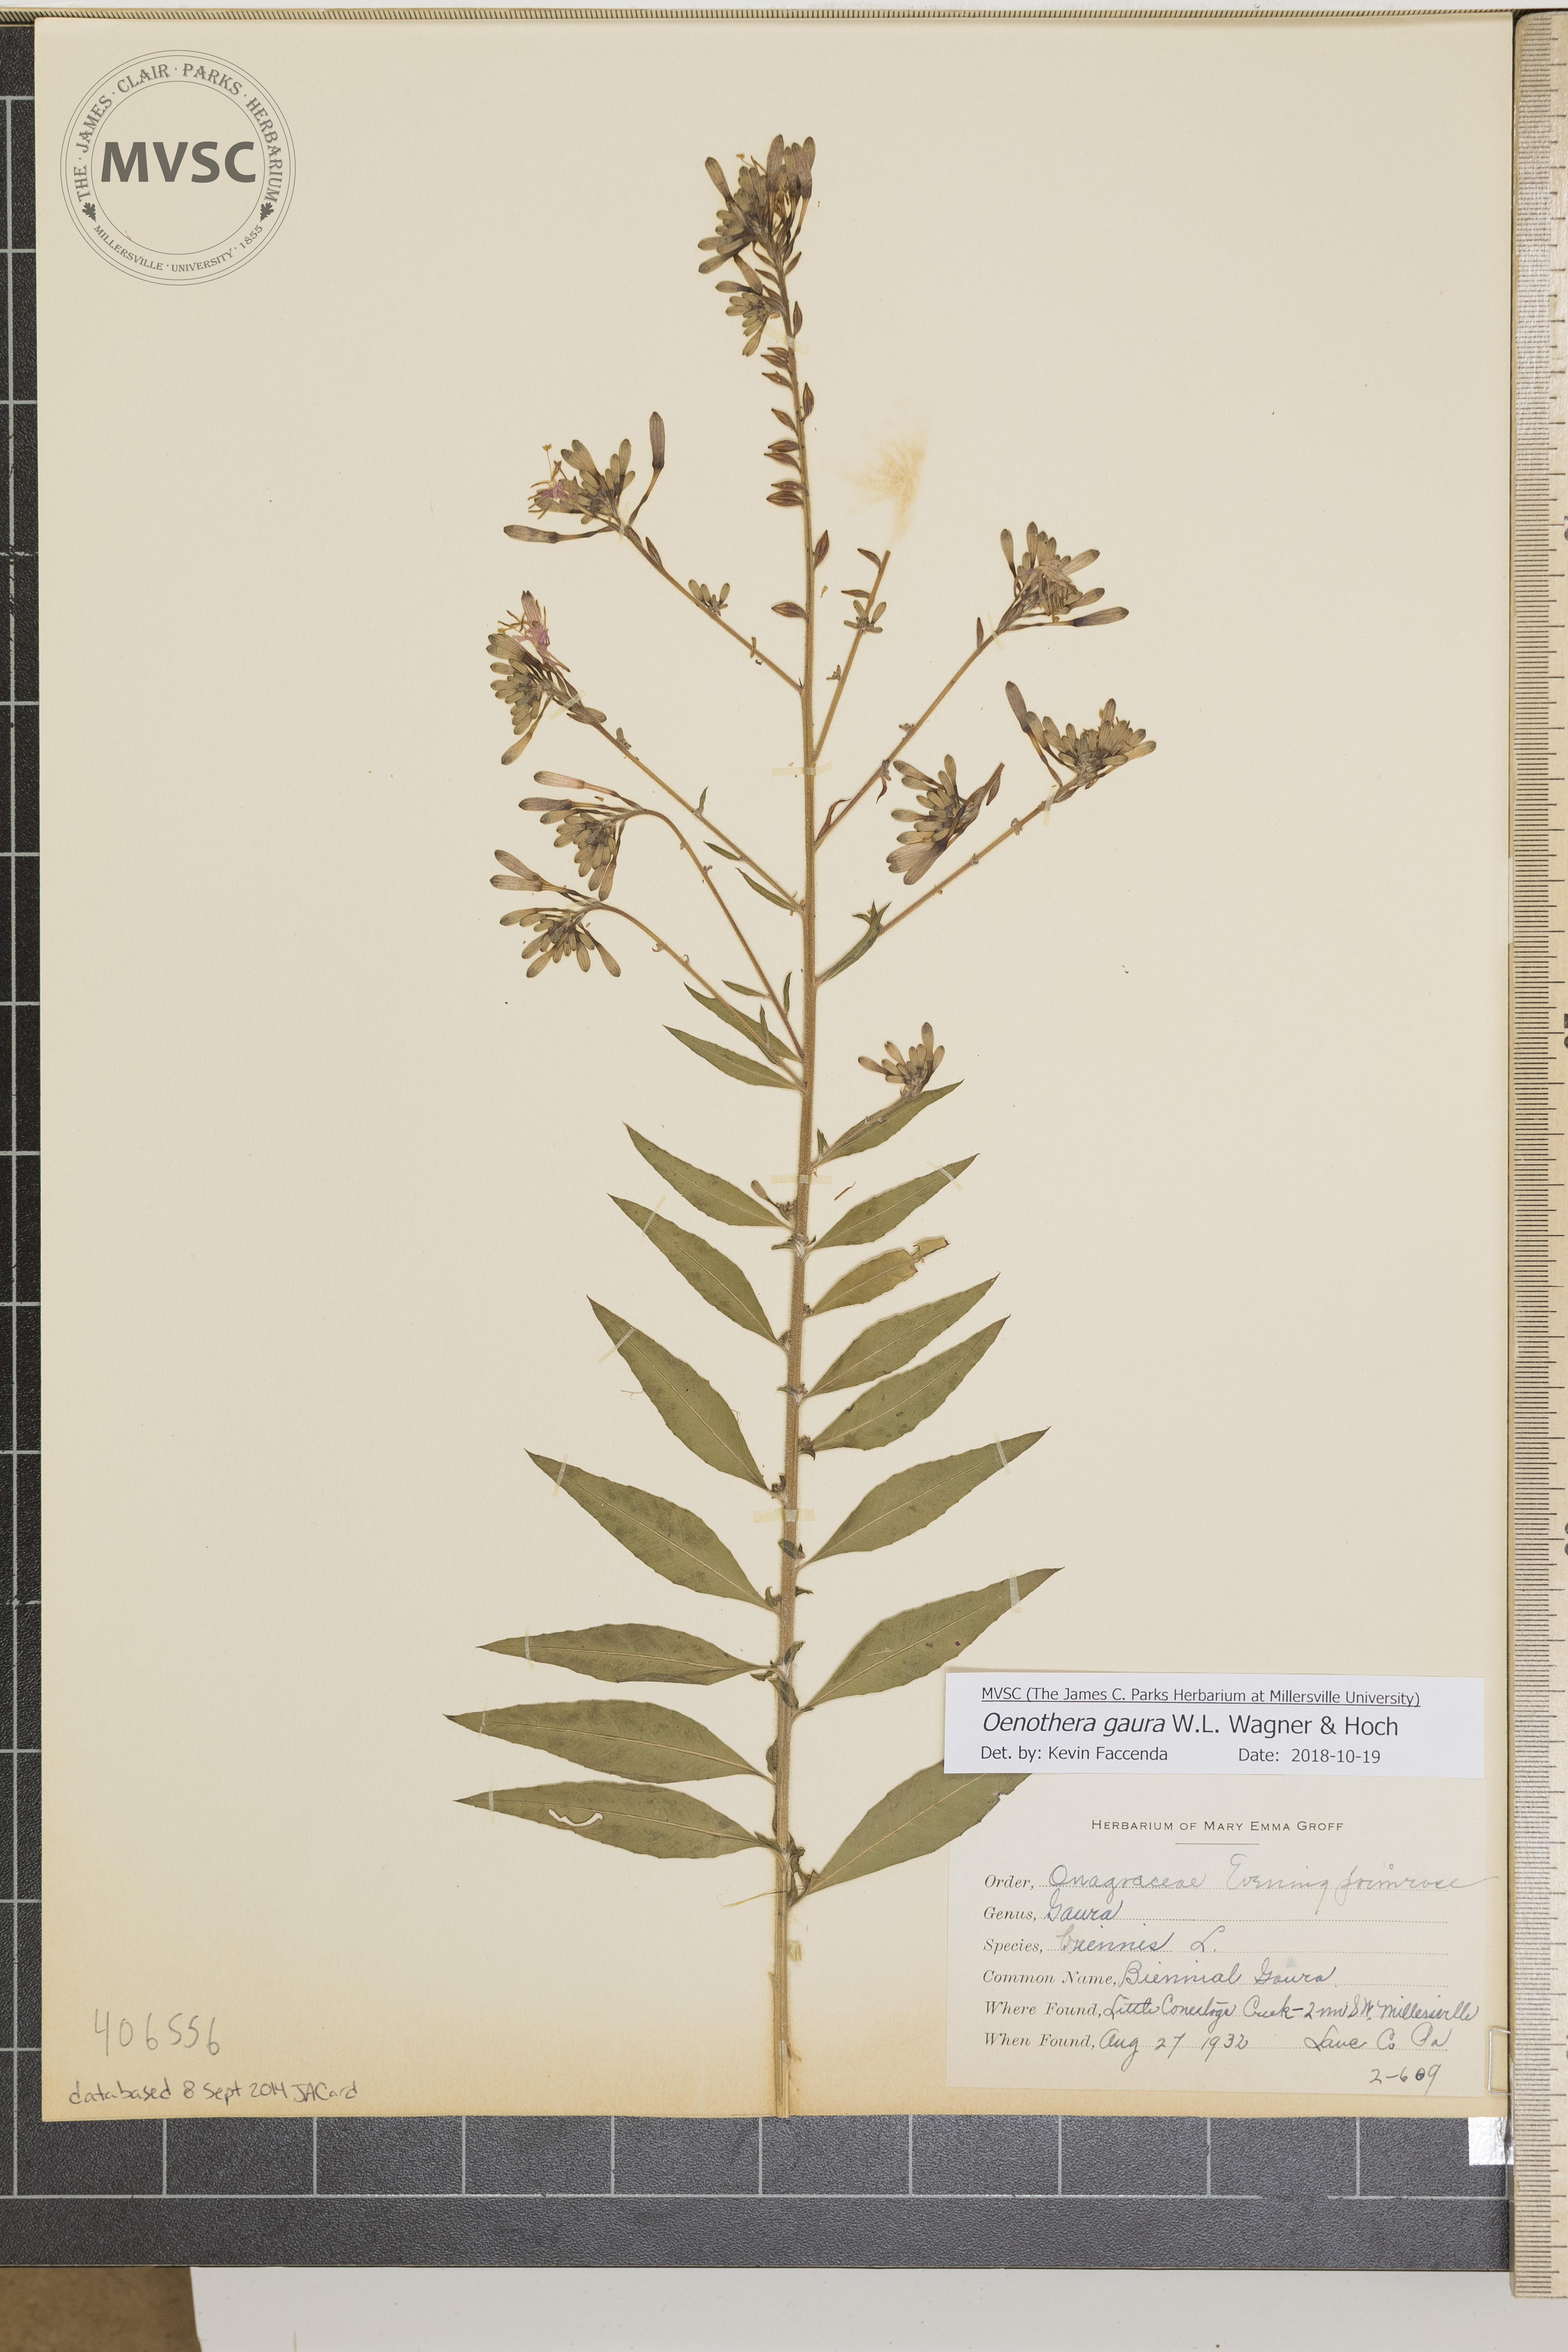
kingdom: Plantae
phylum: Tracheophyta
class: Magnoliopsida
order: Myrtales
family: Onagraceae
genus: Oenothera
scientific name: Oenothera gaura
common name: biennial Gaura
